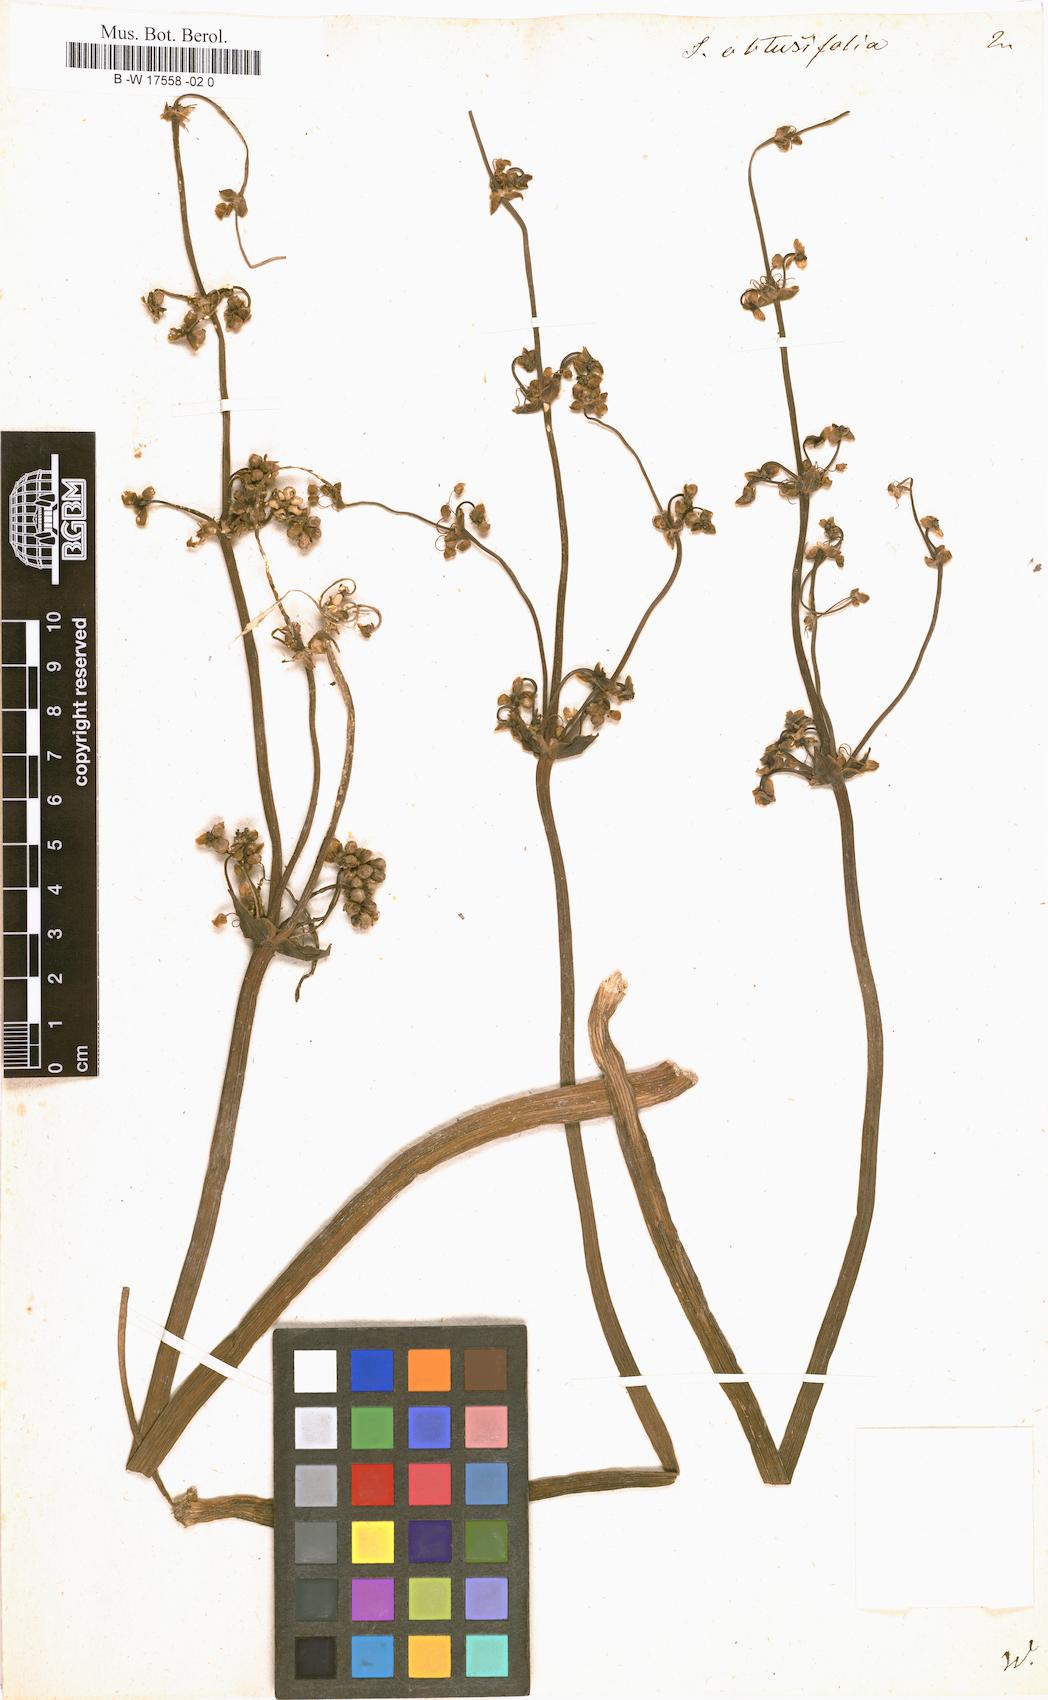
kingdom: Plantae
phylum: Tracheophyta
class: Liliopsida
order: Alismatales
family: Alismataceae
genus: Limnophyton
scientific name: Limnophyton obtusifolium
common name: Arrow head
